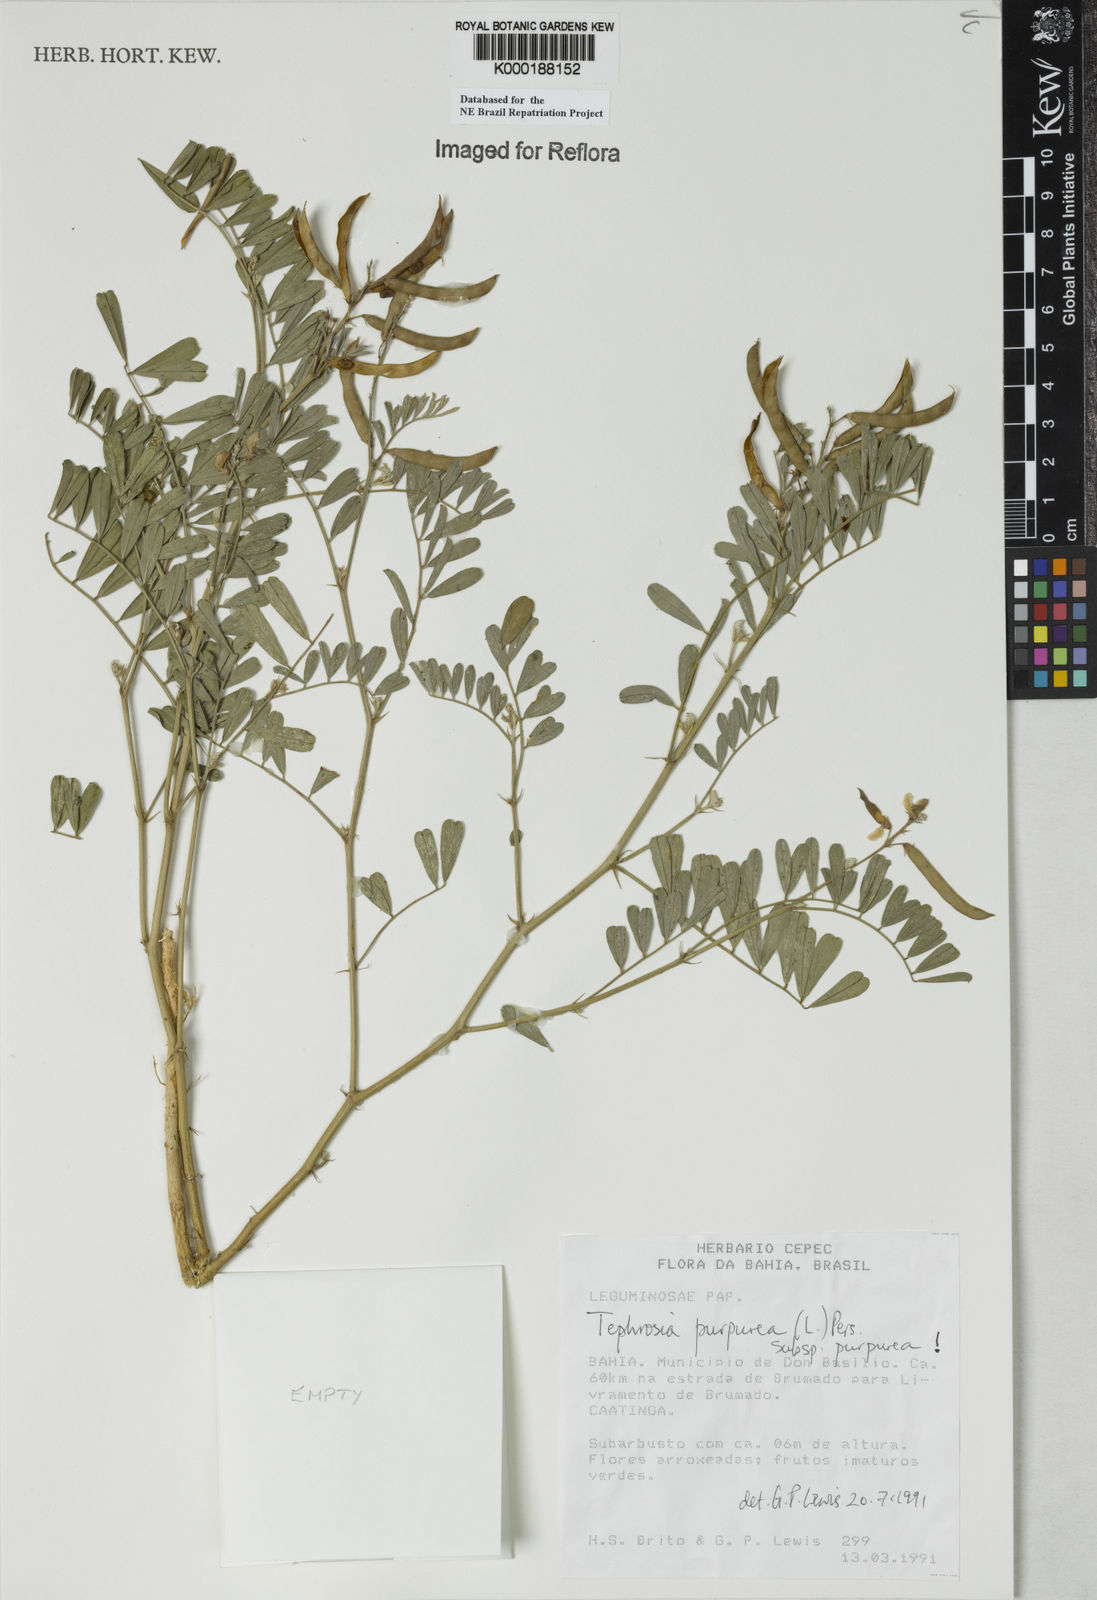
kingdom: Plantae
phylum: Tracheophyta
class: Magnoliopsida
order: Fabales
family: Fabaceae
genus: Tephrosia
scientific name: Tephrosia purpurea
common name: Fishpoison
